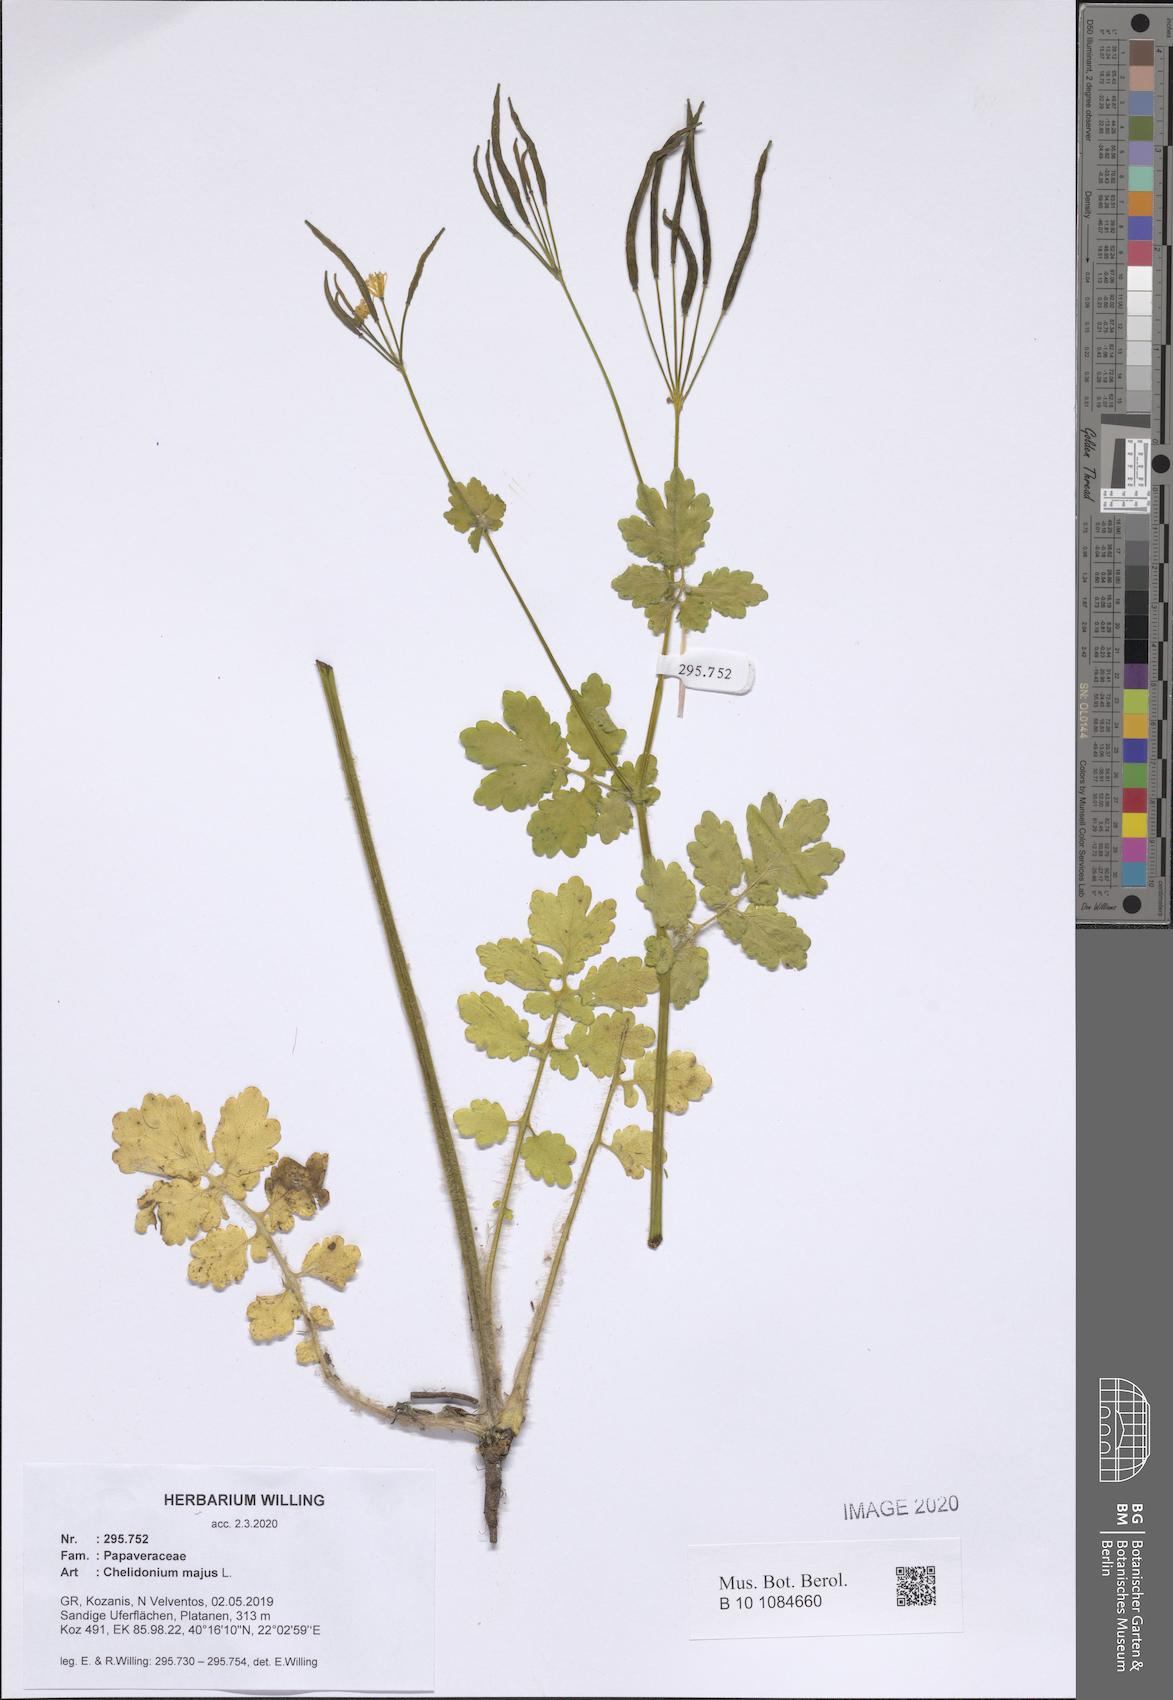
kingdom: Plantae
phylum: Tracheophyta
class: Magnoliopsida
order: Ranunculales
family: Papaveraceae
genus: Chelidonium
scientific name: Chelidonium majus
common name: Greater celandine
